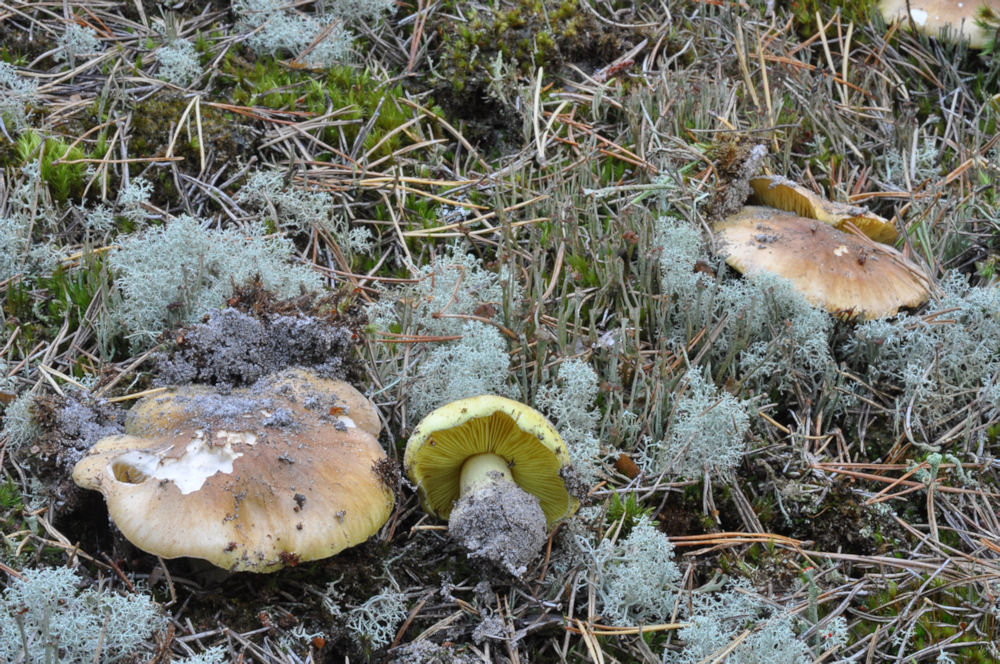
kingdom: Fungi
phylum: Basidiomycota
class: Agaricomycetes
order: Agaricales
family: Tricholomataceae
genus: Tricholoma
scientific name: Tricholoma equestre
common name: ægte ridderhat
